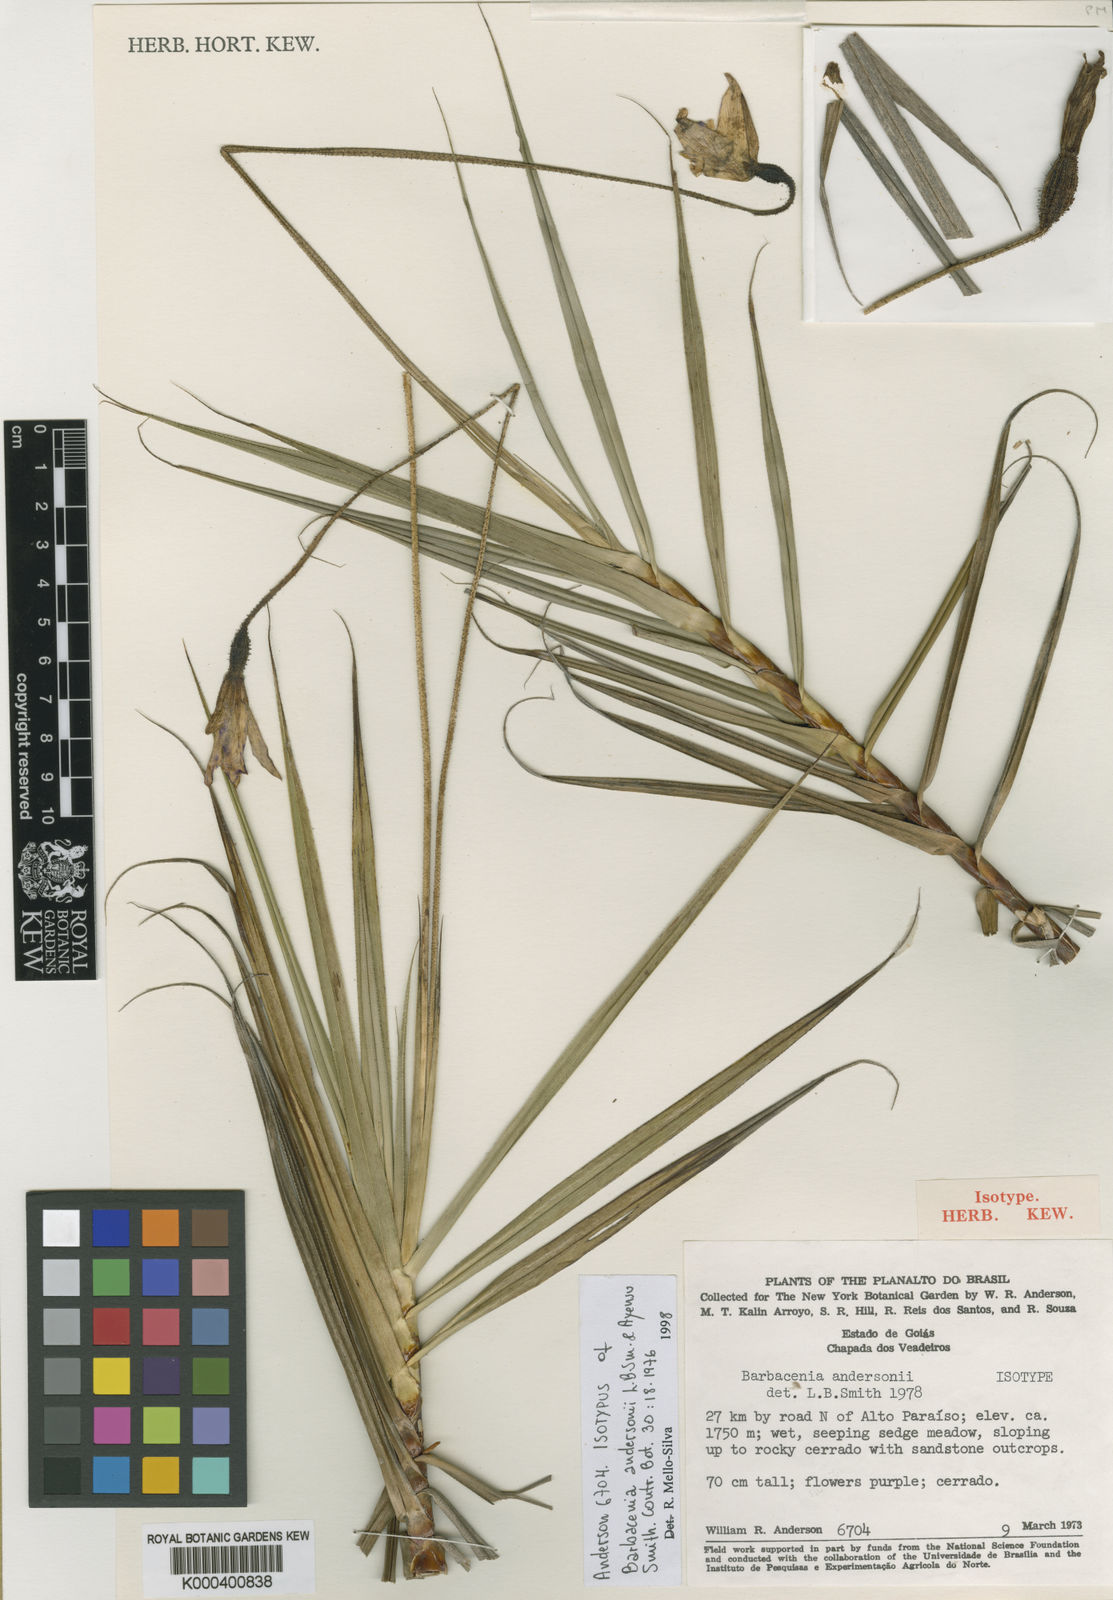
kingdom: Plantae
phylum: Tracheophyta
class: Liliopsida
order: Pandanales
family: Velloziaceae
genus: Barbacenia
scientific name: Barbacenia andersonii
